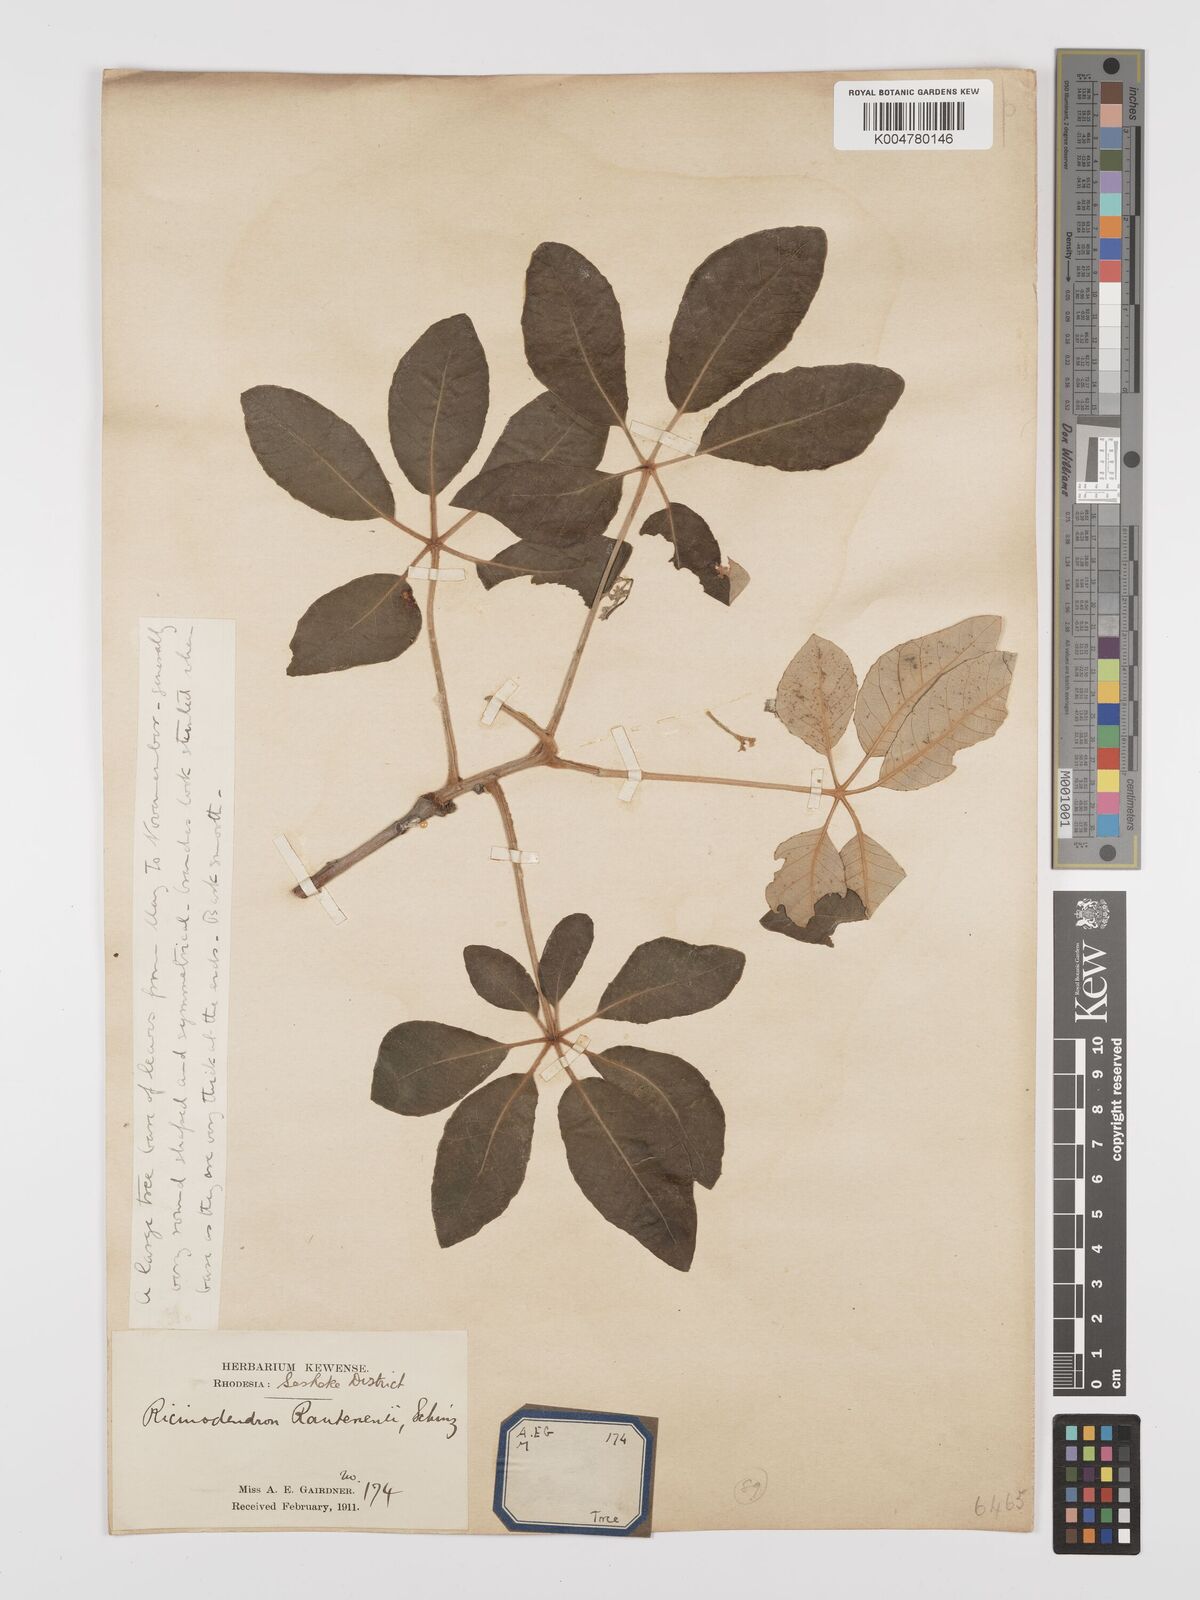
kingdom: Plantae
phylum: Tracheophyta
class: Magnoliopsida
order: Malpighiales
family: Euphorbiaceae
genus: Schinziophyton
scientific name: Schinziophyton rautanenii
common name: Manketti
